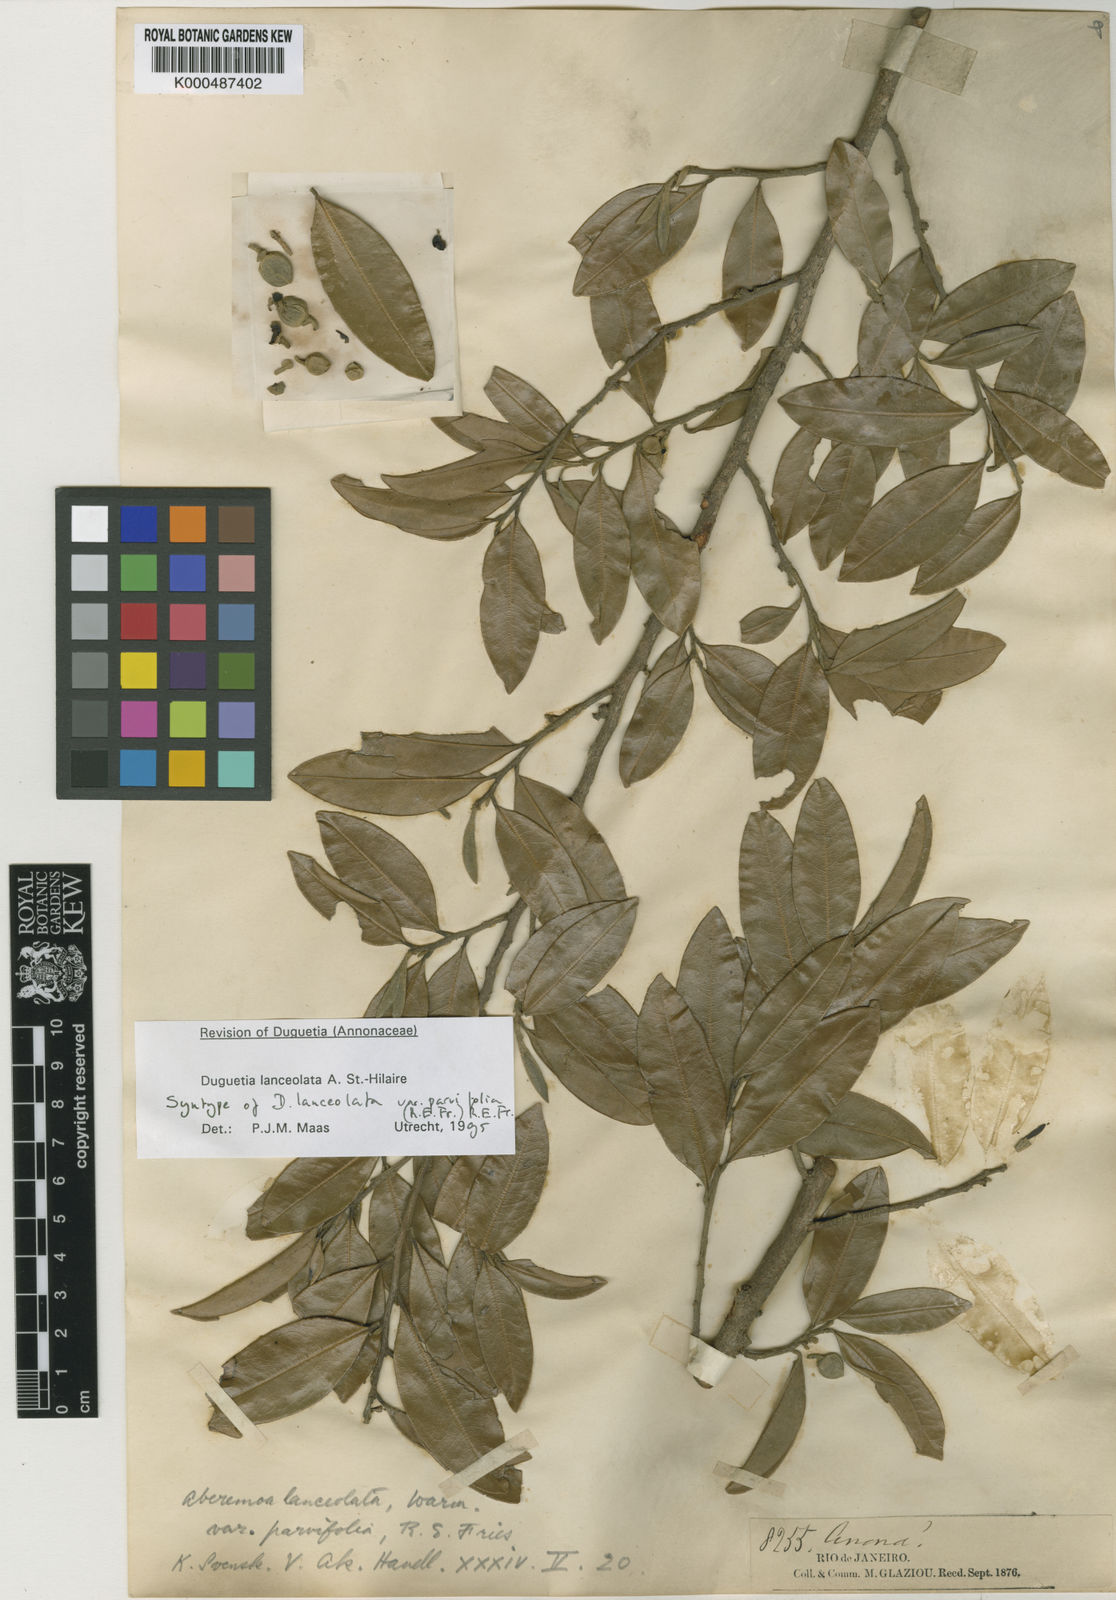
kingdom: Plantae
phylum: Tracheophyta
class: Magnoliopsida
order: Magnoliales
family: Annonaceae
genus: Duguetia
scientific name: Duguetia lanceolata
